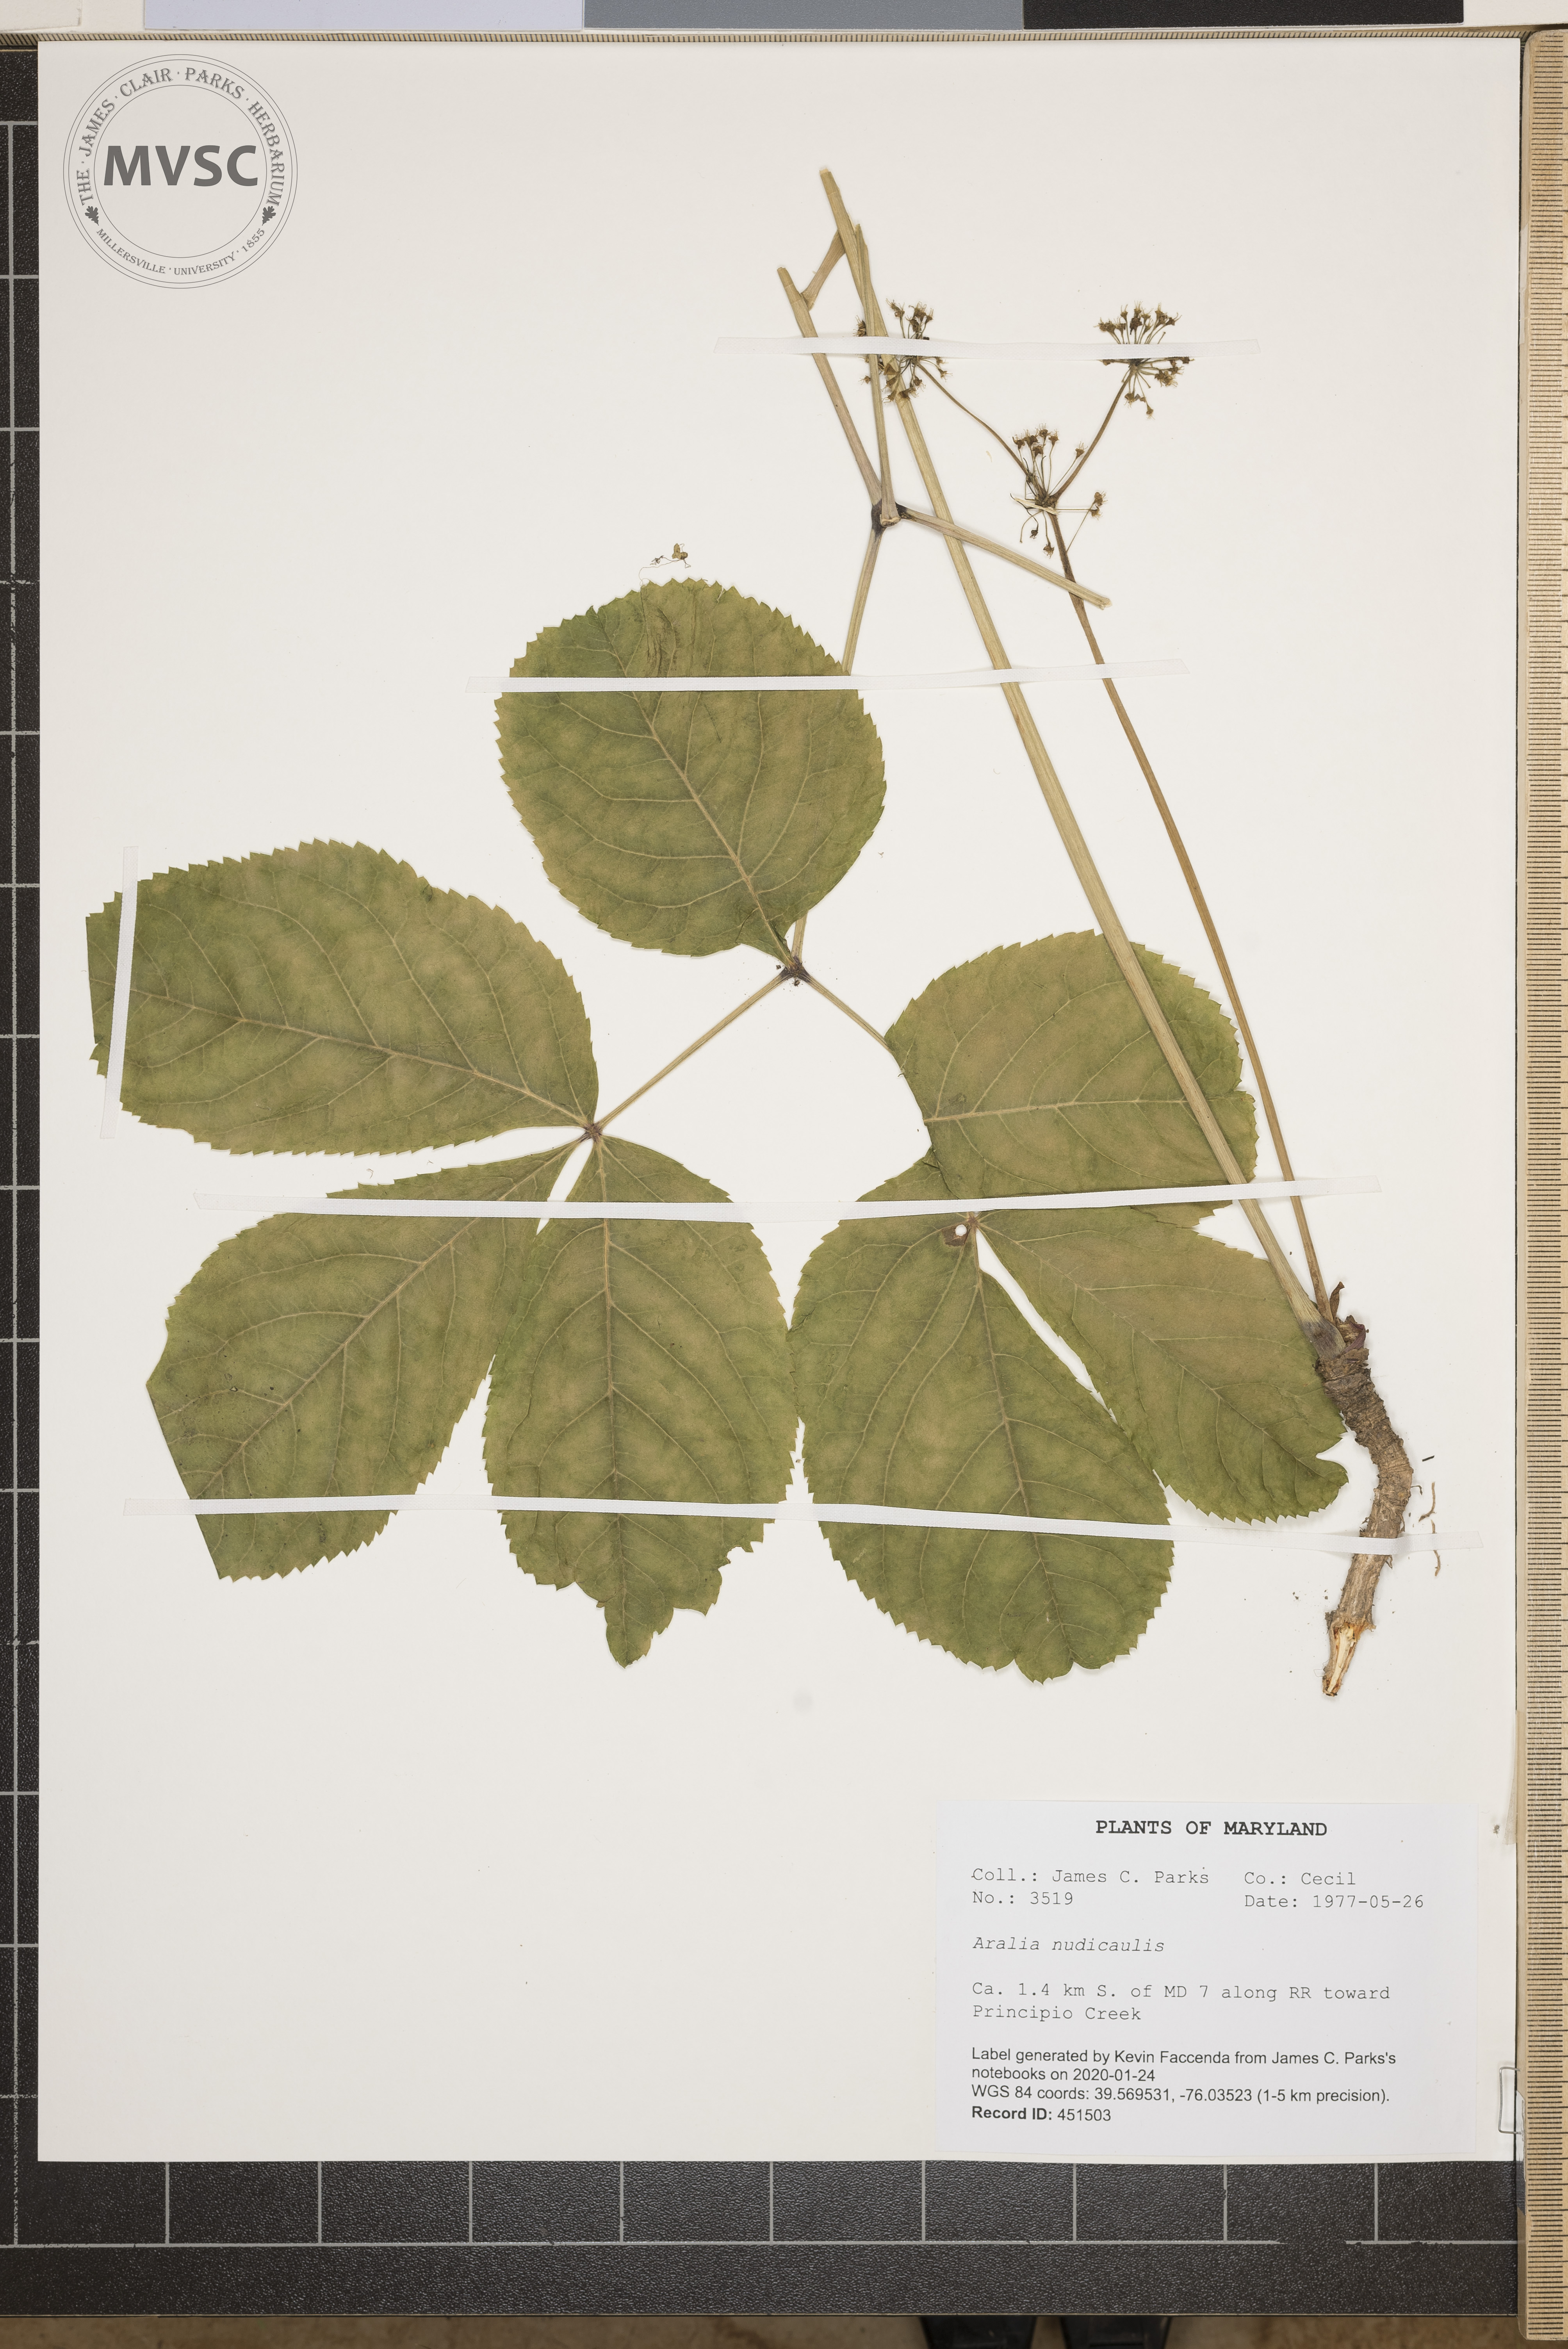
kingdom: Plantae
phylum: Tracheophyta
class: Magnoliopsida
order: Apiales
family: Araliaceae
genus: Aralia
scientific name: Aralia nudicaulis
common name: Wild sarsaparilla
